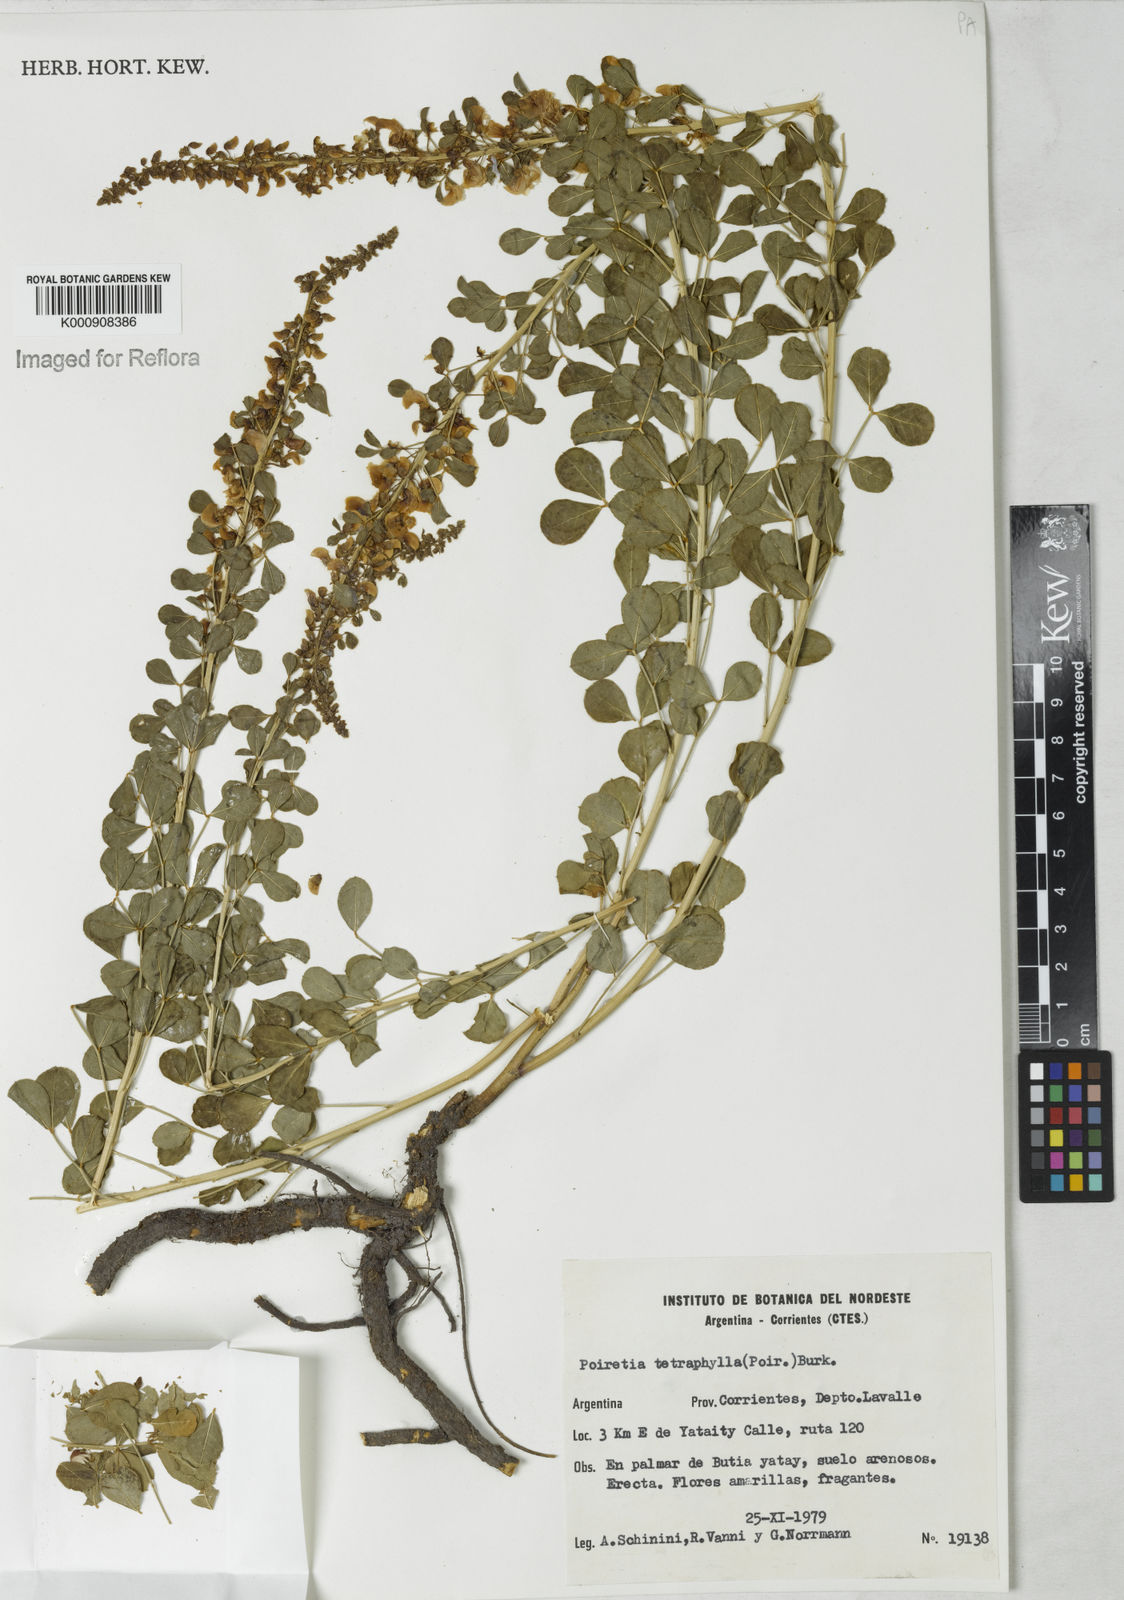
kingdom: Plantae
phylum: Tracheophyta
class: Magnoliopsida
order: Fabales
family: Fabaceae
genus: Poiretia
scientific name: Poiretia tetraphylla
